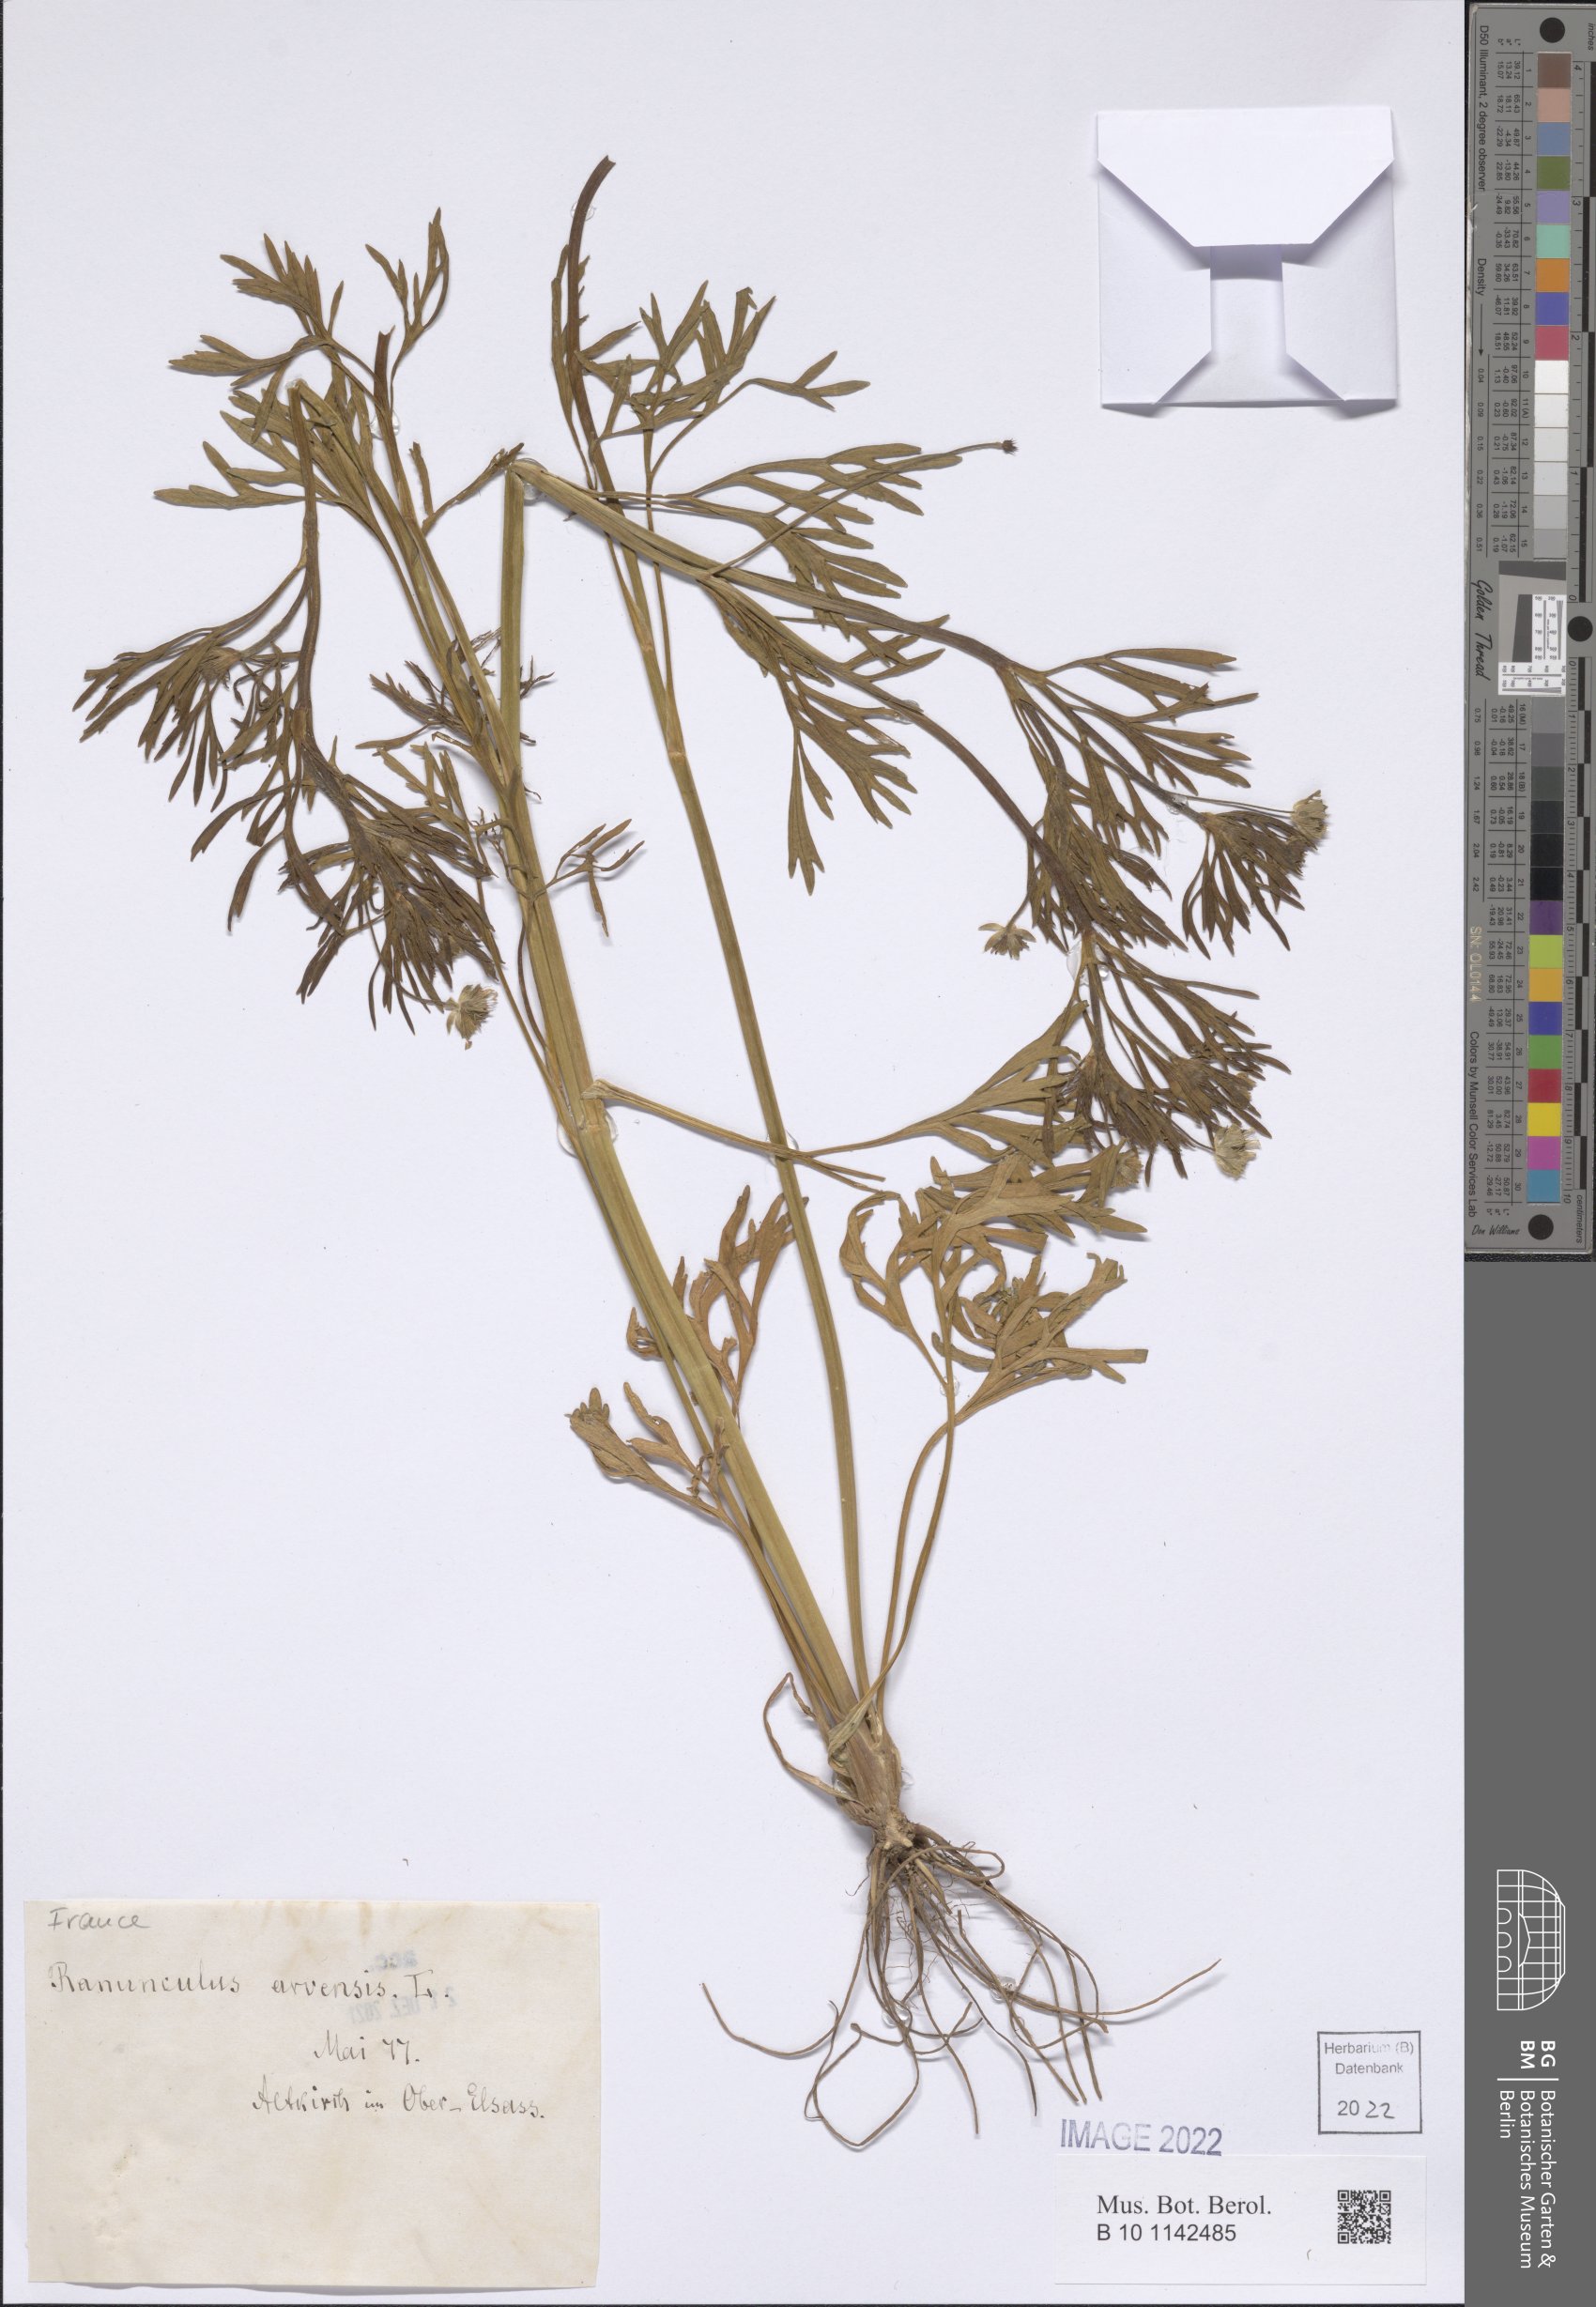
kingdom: Plantae
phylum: Tracheophyta
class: Magnoliopsida
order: Ranunculales
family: Ranunculaceae
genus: Ranunculus
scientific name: Ranunculus arvensis
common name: Corn buttercup
